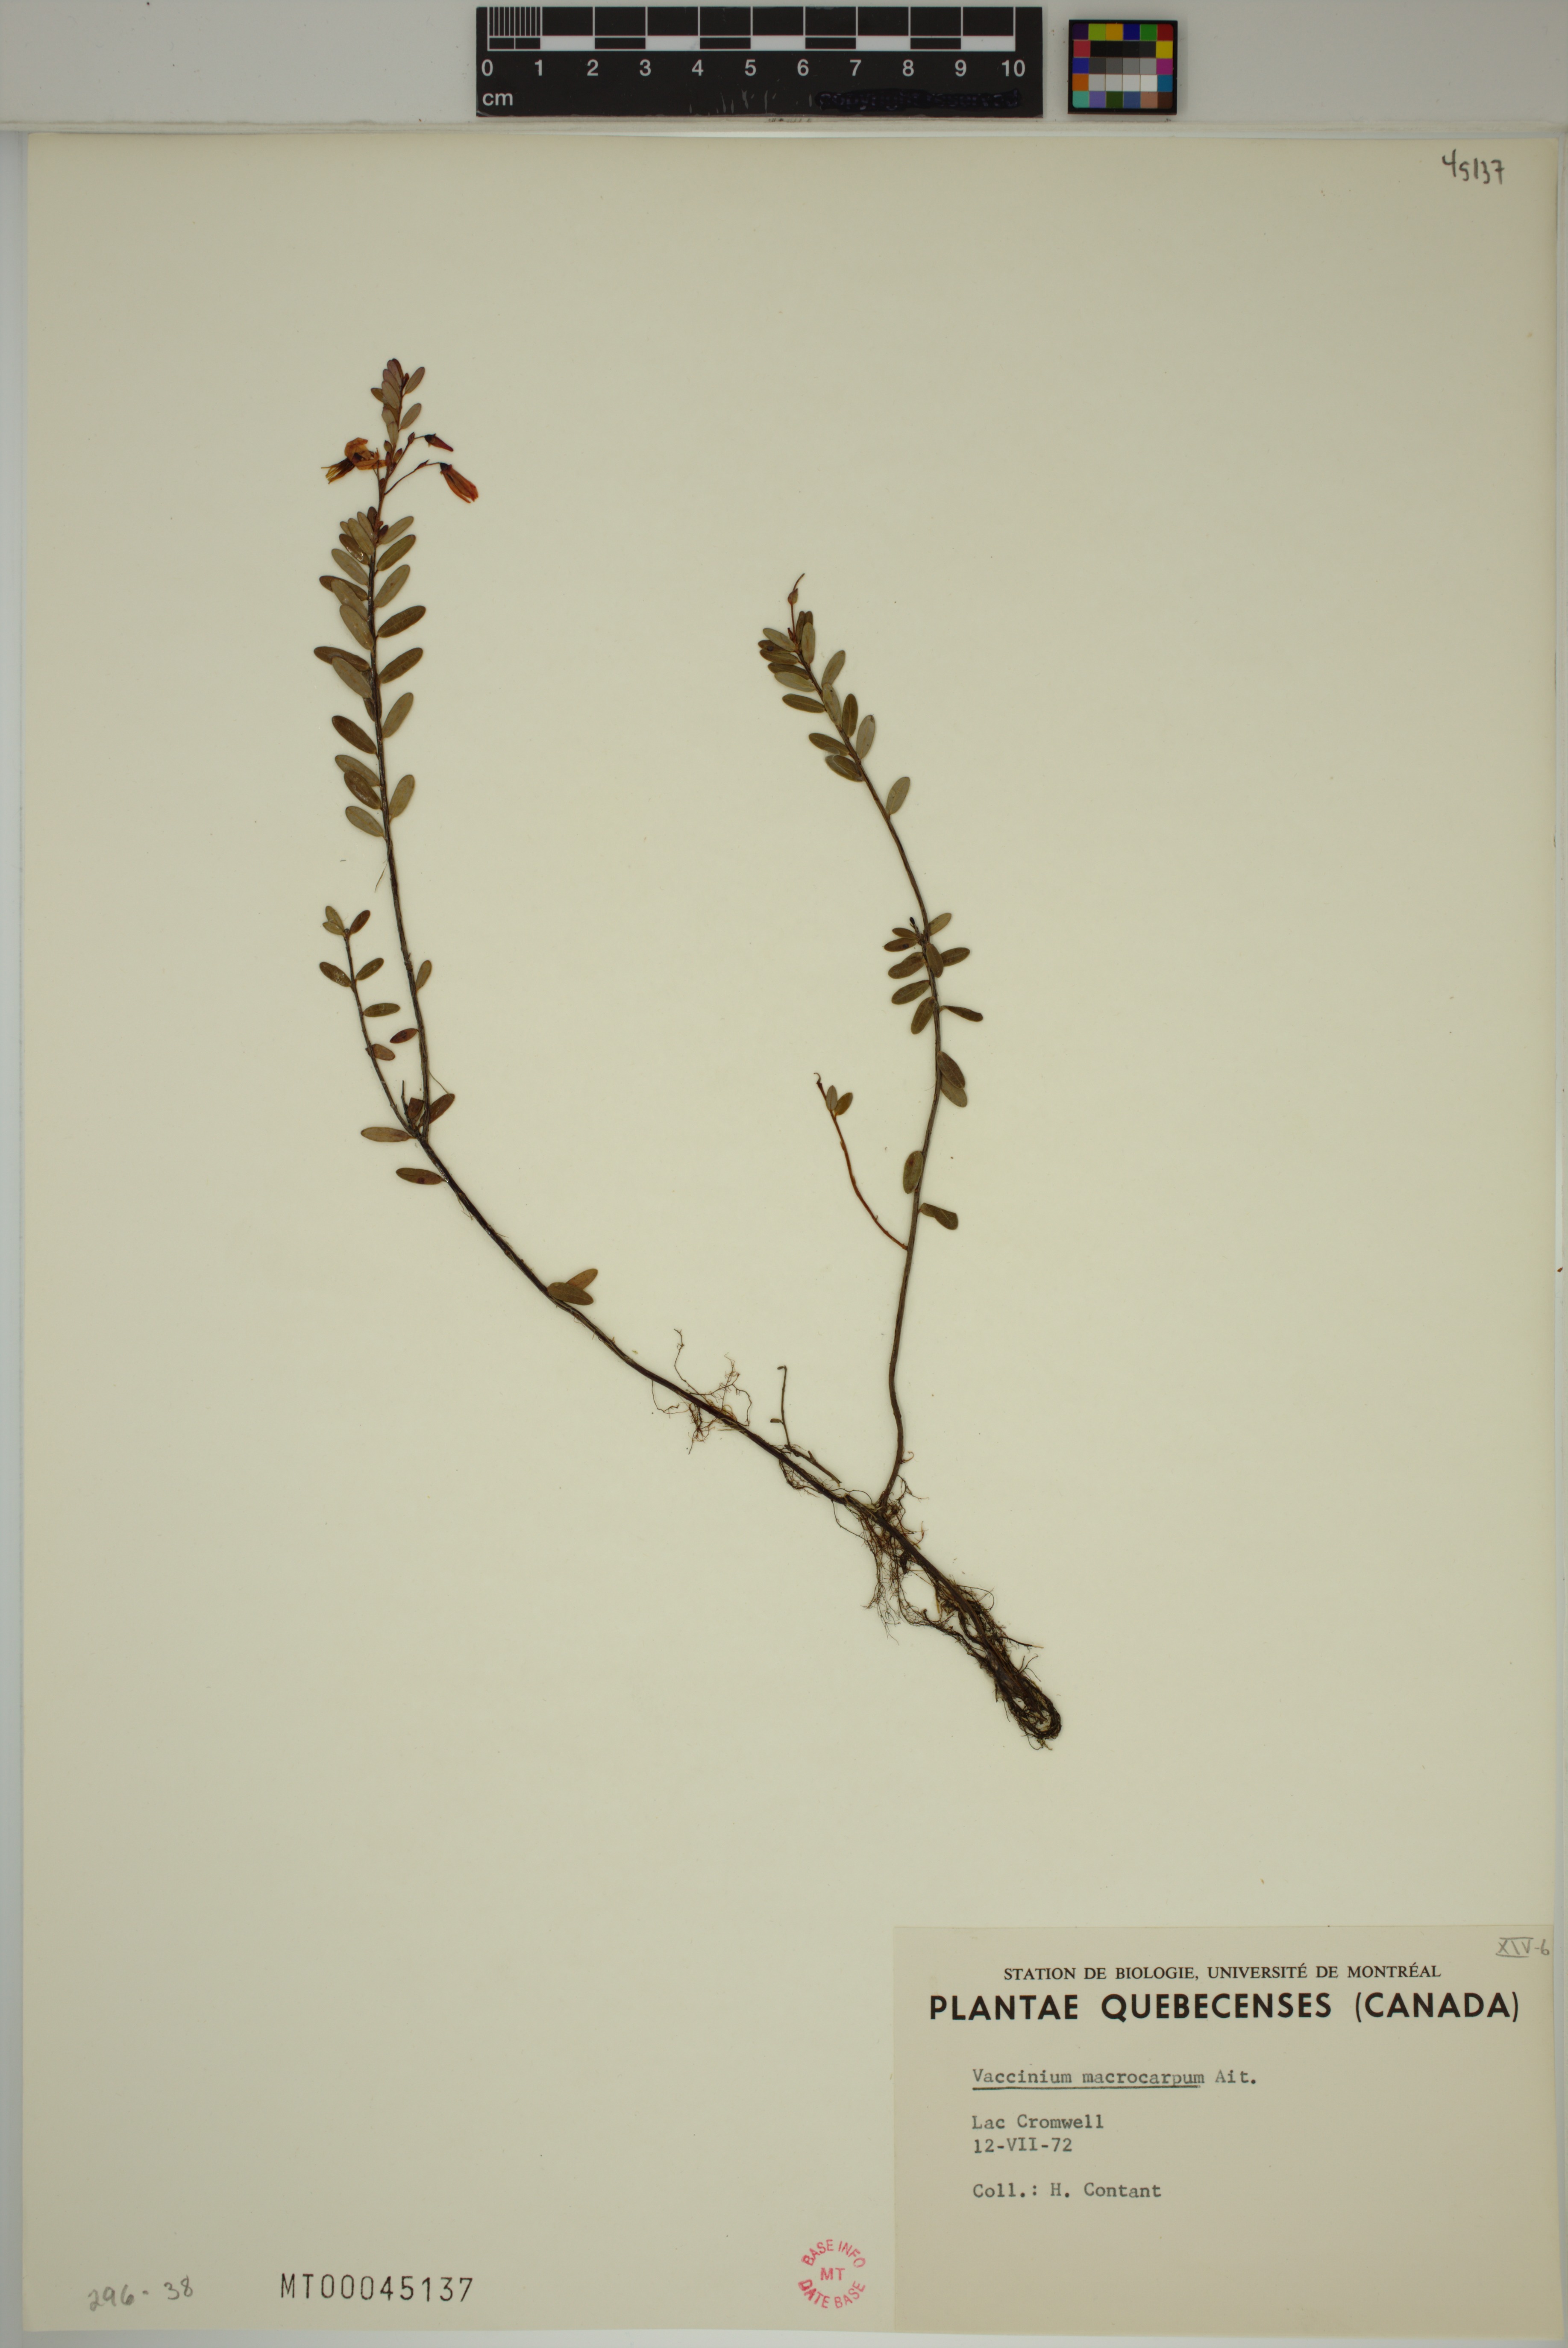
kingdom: Plantae
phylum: Tracheophyta
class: Magnoliopsida
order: Ericales
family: Ericaceae
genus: Vaccinium
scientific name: Vaccinium macrocarpon
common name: American cranberry
